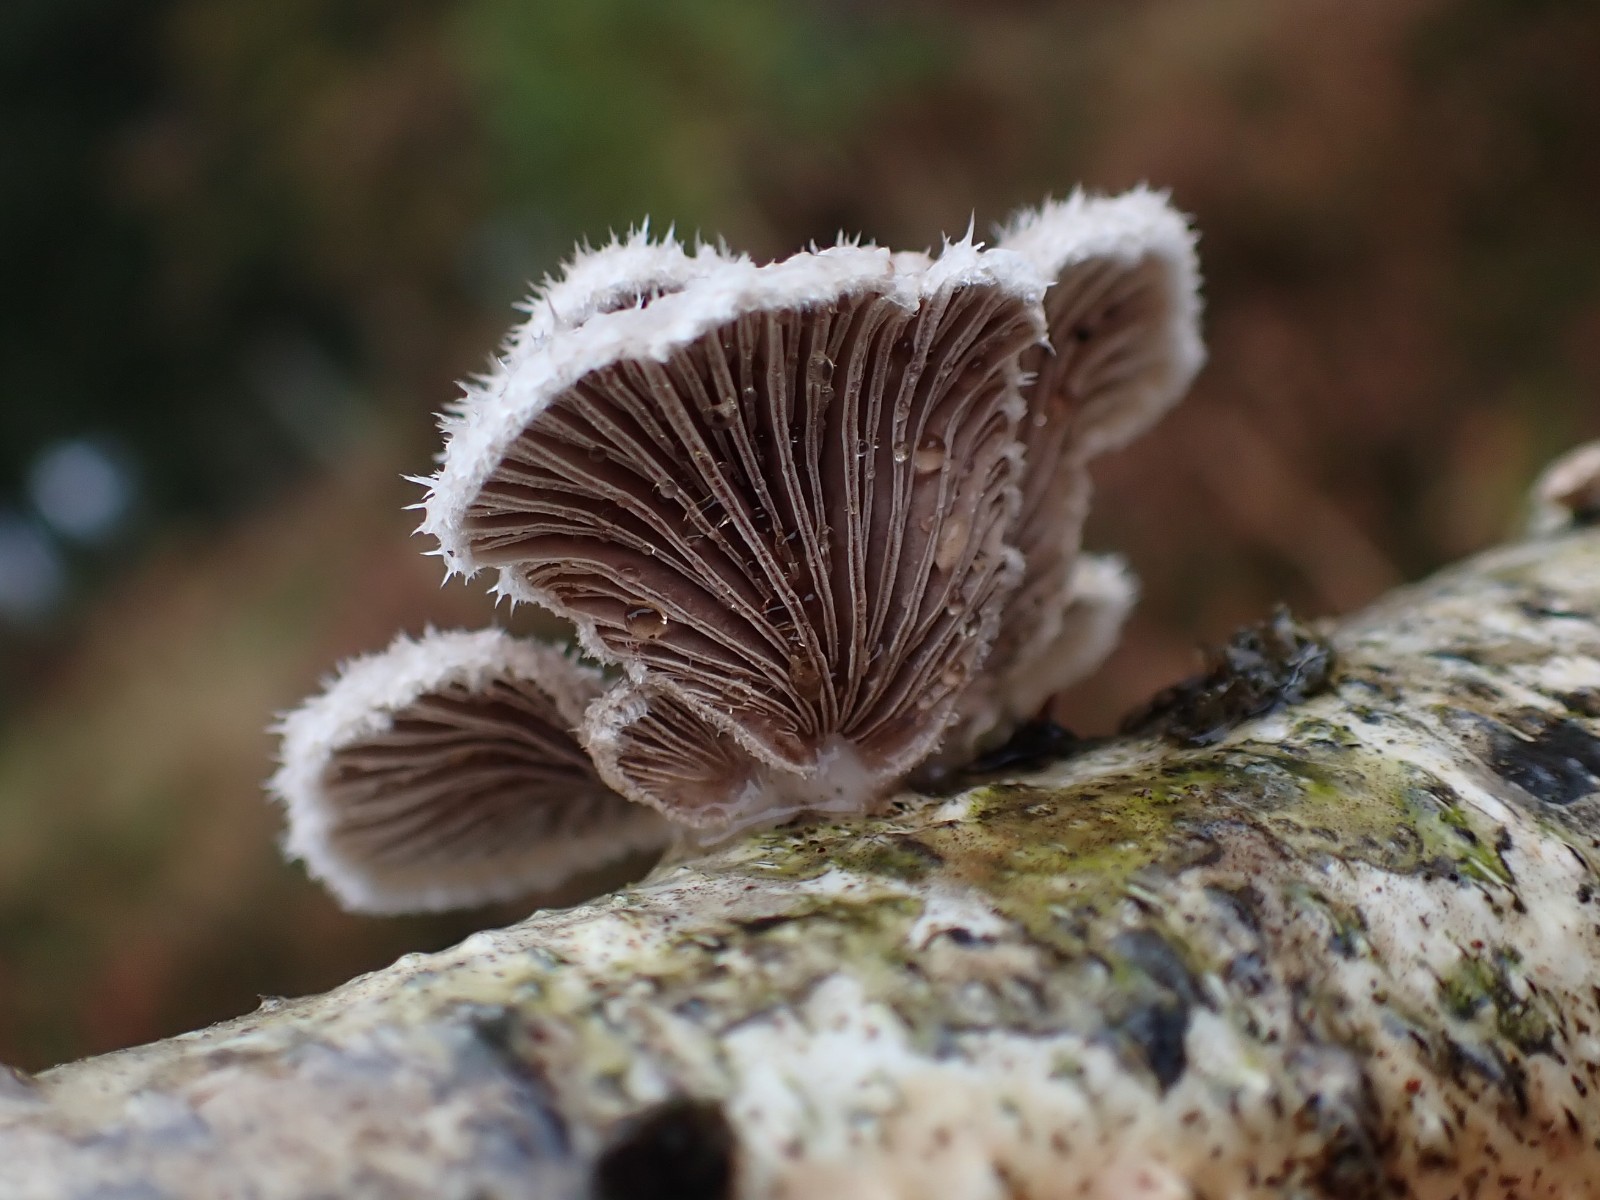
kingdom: Fungi
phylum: Basidiomycota
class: Agaricomycetes
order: Agaricales
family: Schizophyllaceae
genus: Schizophyllum
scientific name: Schizophyllum commune
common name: kløvblad
